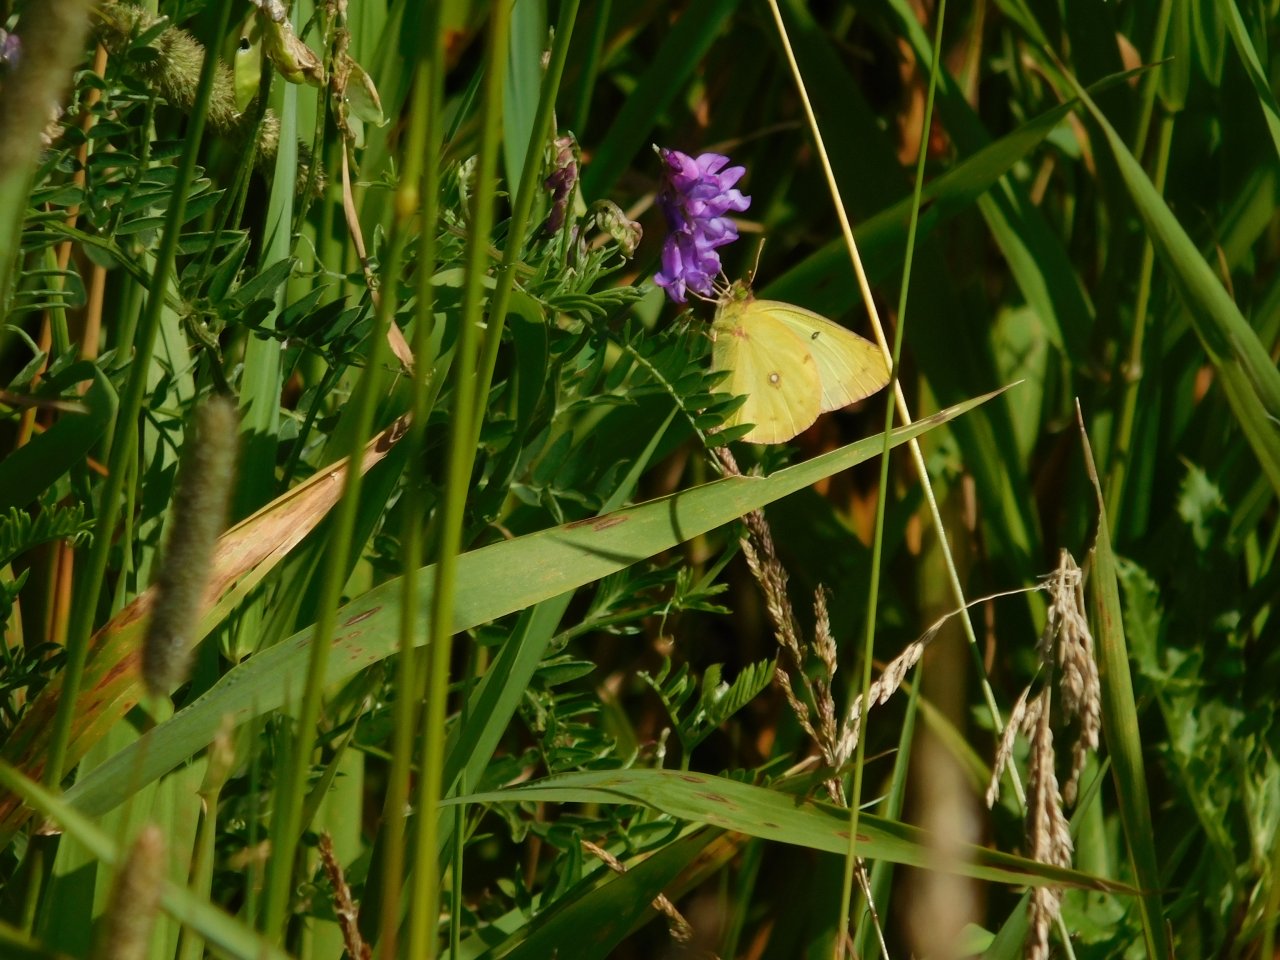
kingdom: Animalia
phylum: Arthropoda
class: Insecta
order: Lepidoptera
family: Pieridae
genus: Colias
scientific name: Colias philodice
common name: Clouded Sulphur
